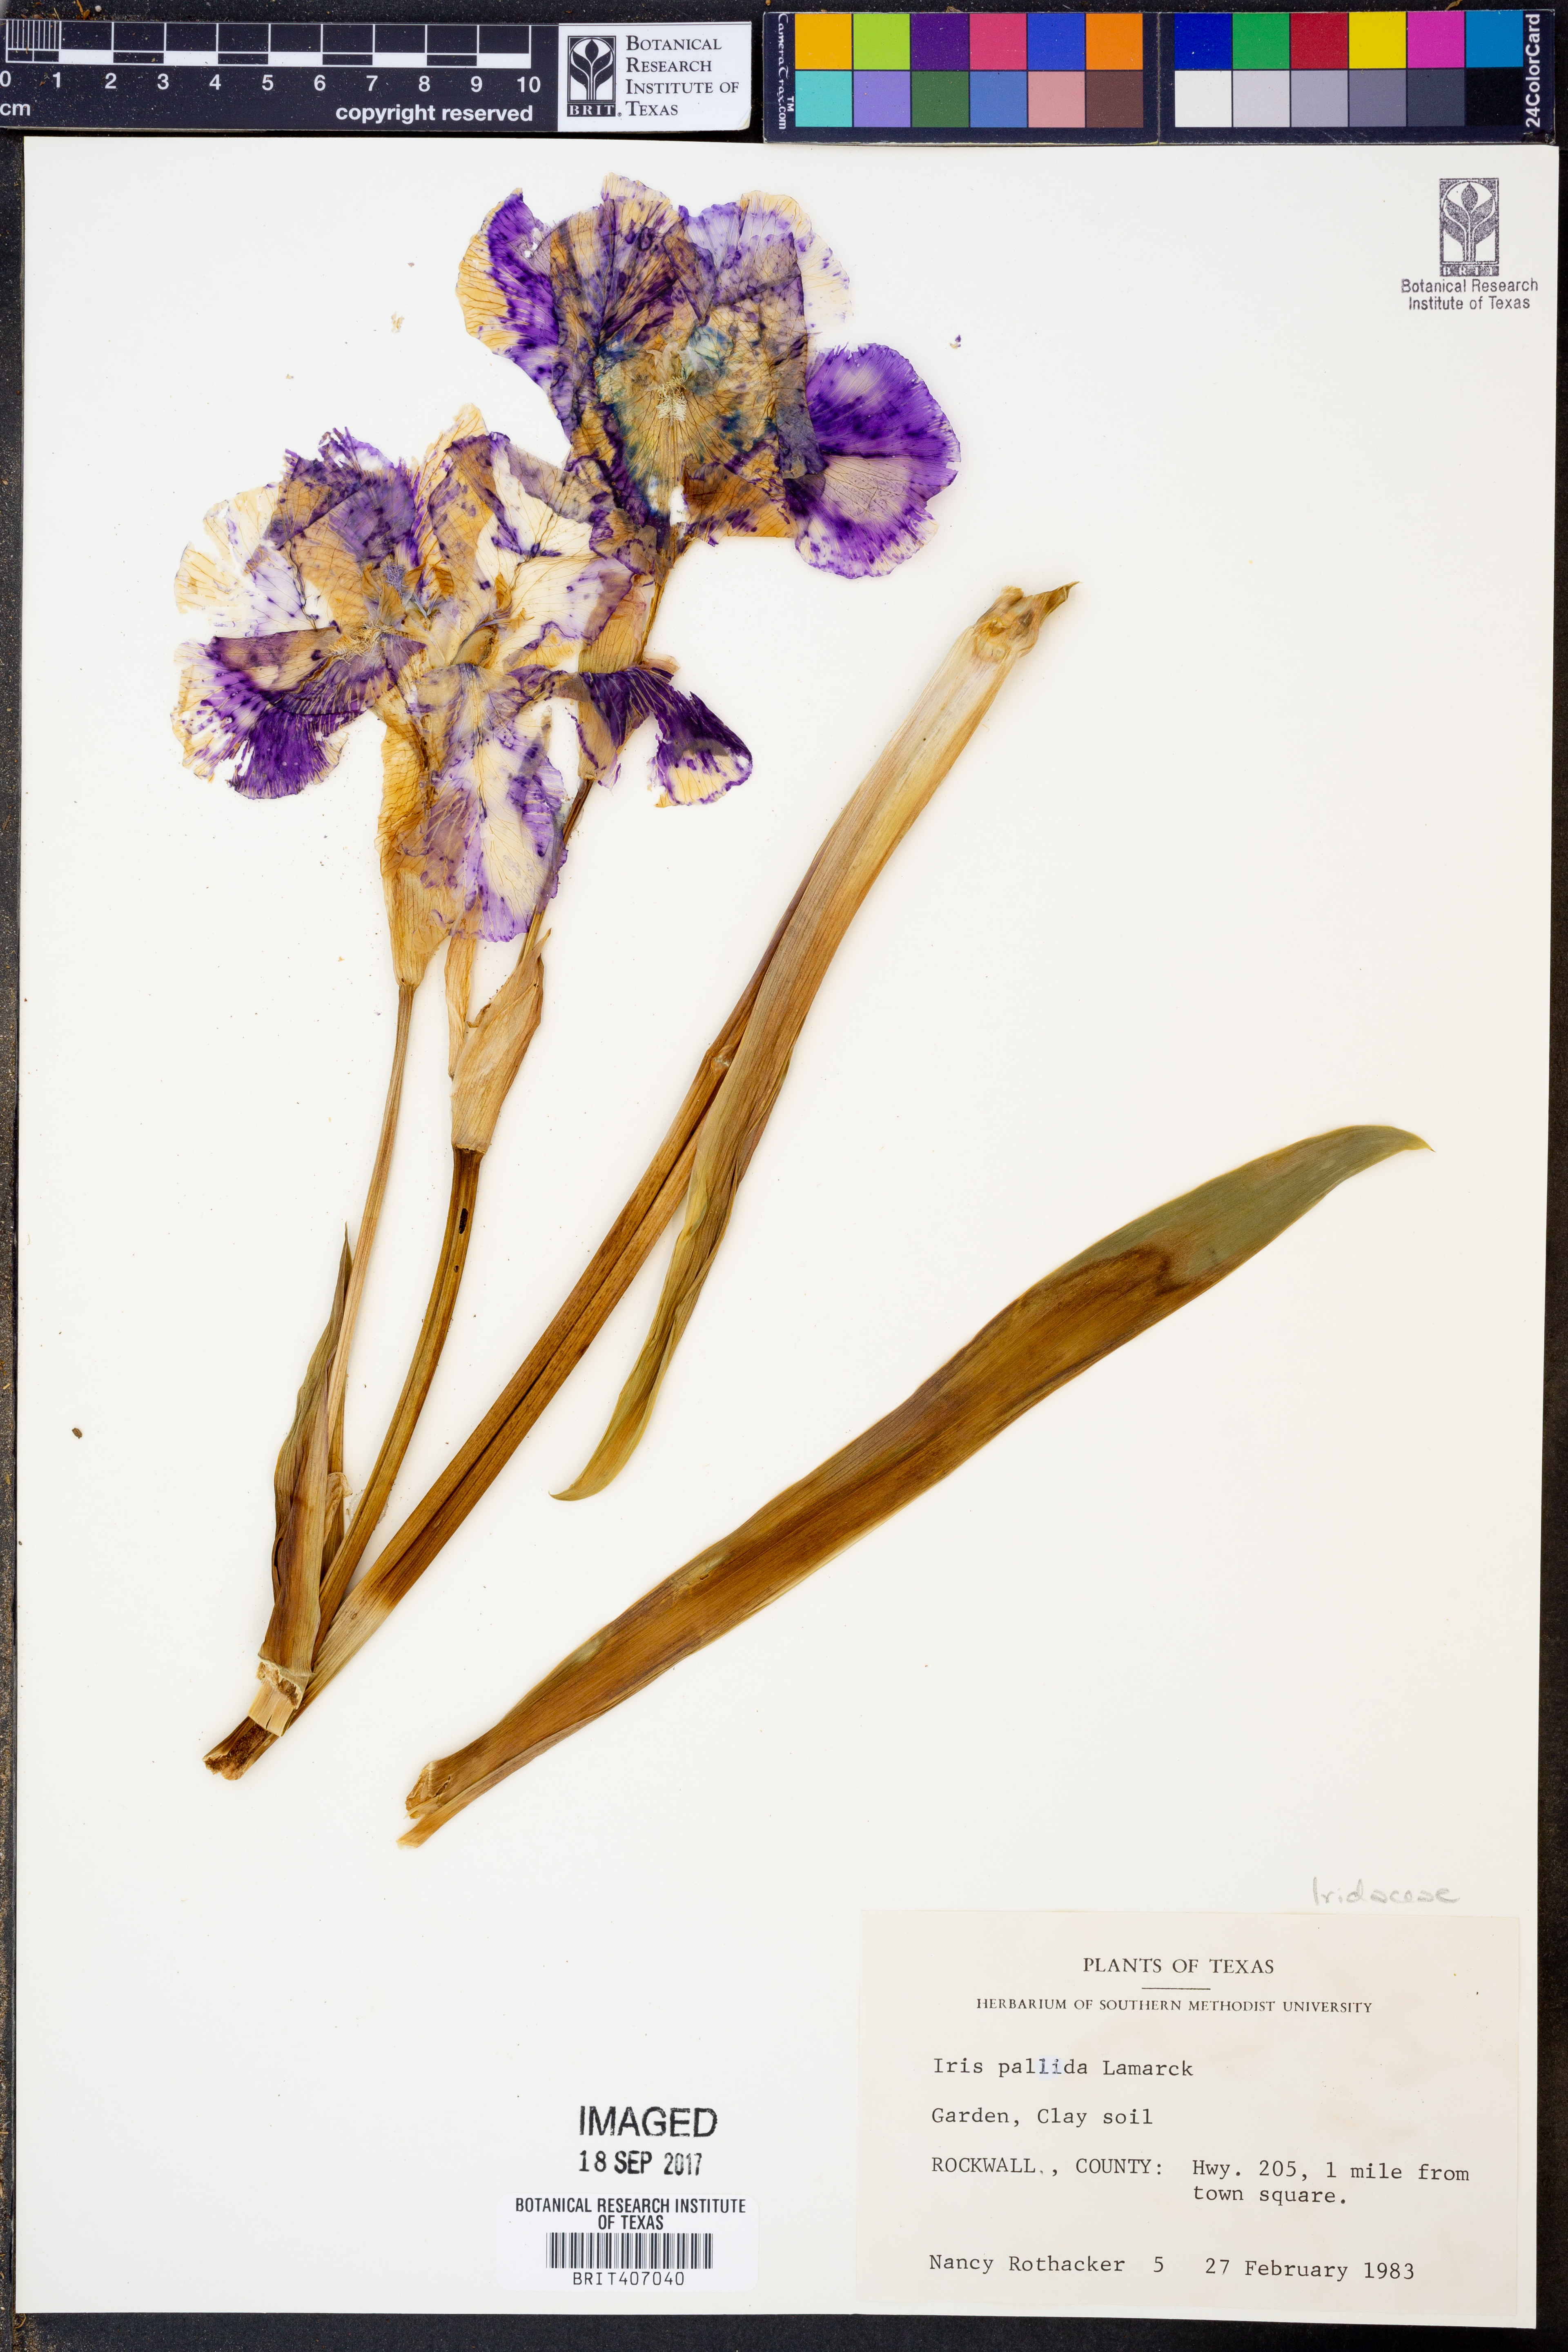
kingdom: Plantae
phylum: Tracheophyta
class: Liliopsida
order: Asparagales
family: Iridaceae
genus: Iris
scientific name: Iris pallida
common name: Sweet iris
